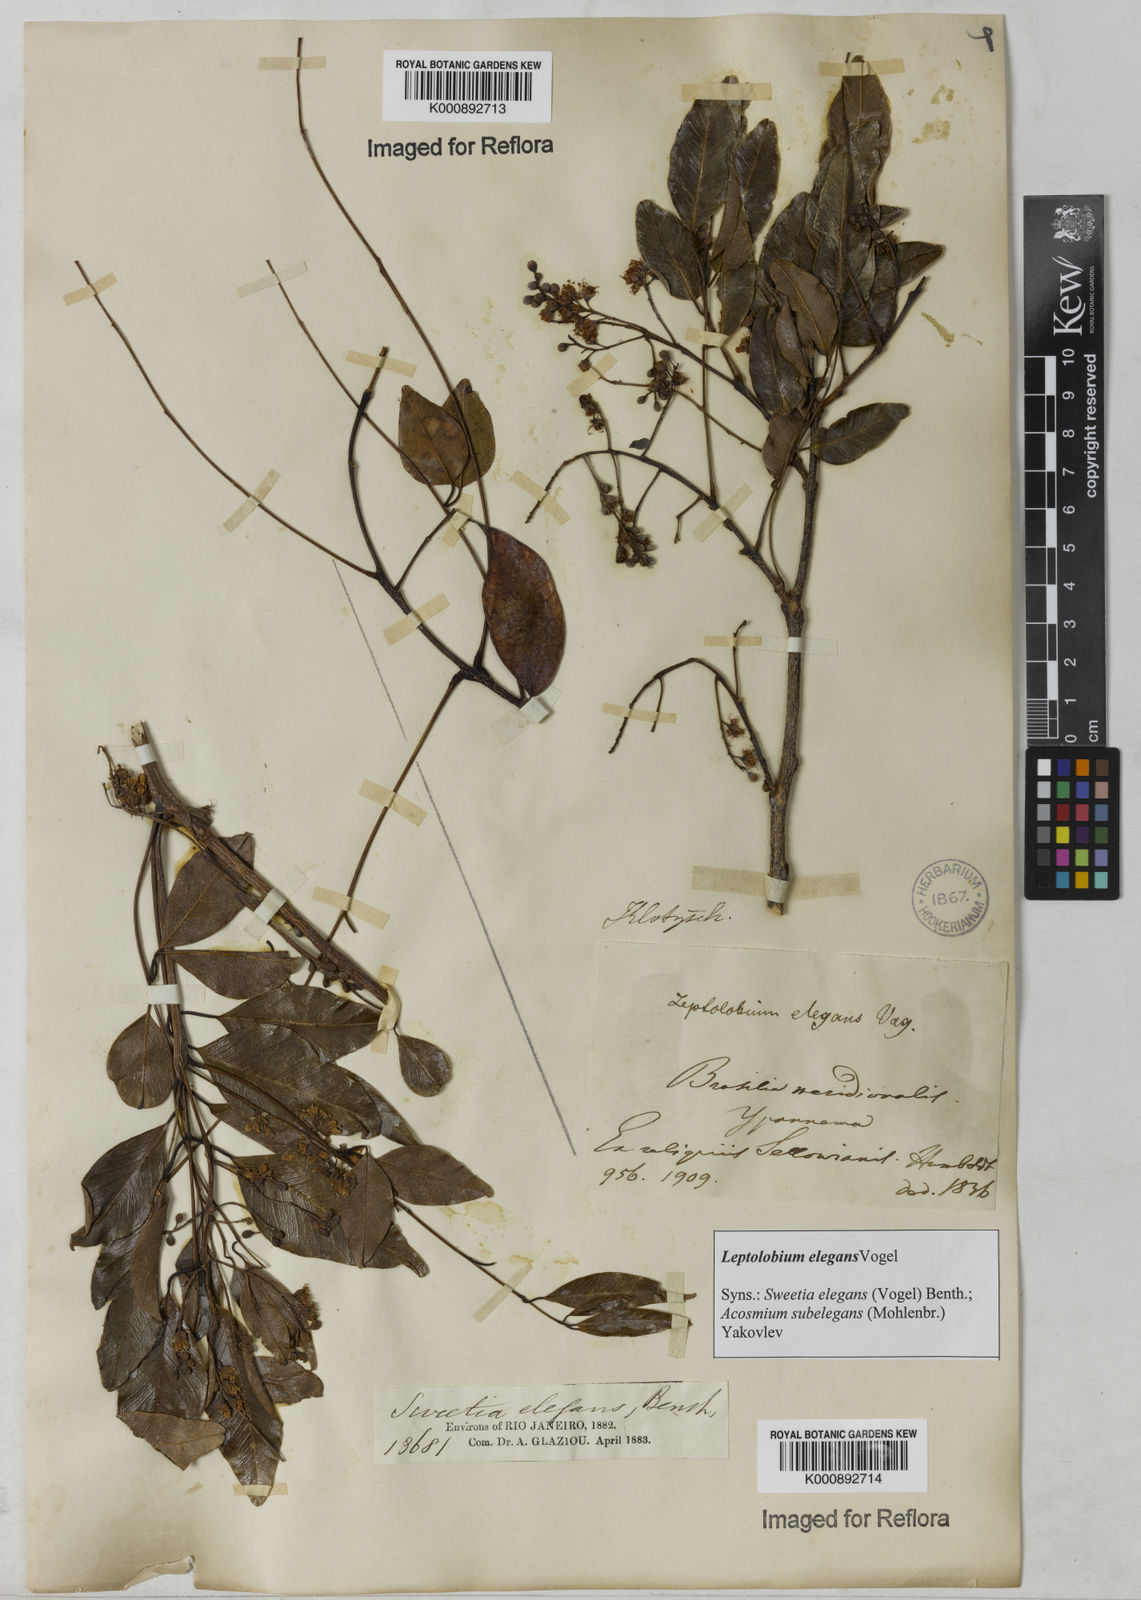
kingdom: Plantae
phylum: Tracheophyta
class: Magnoliopsida
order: Fabales
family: Fabaceae
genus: Leptolobium
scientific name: Leptolobium elegans
